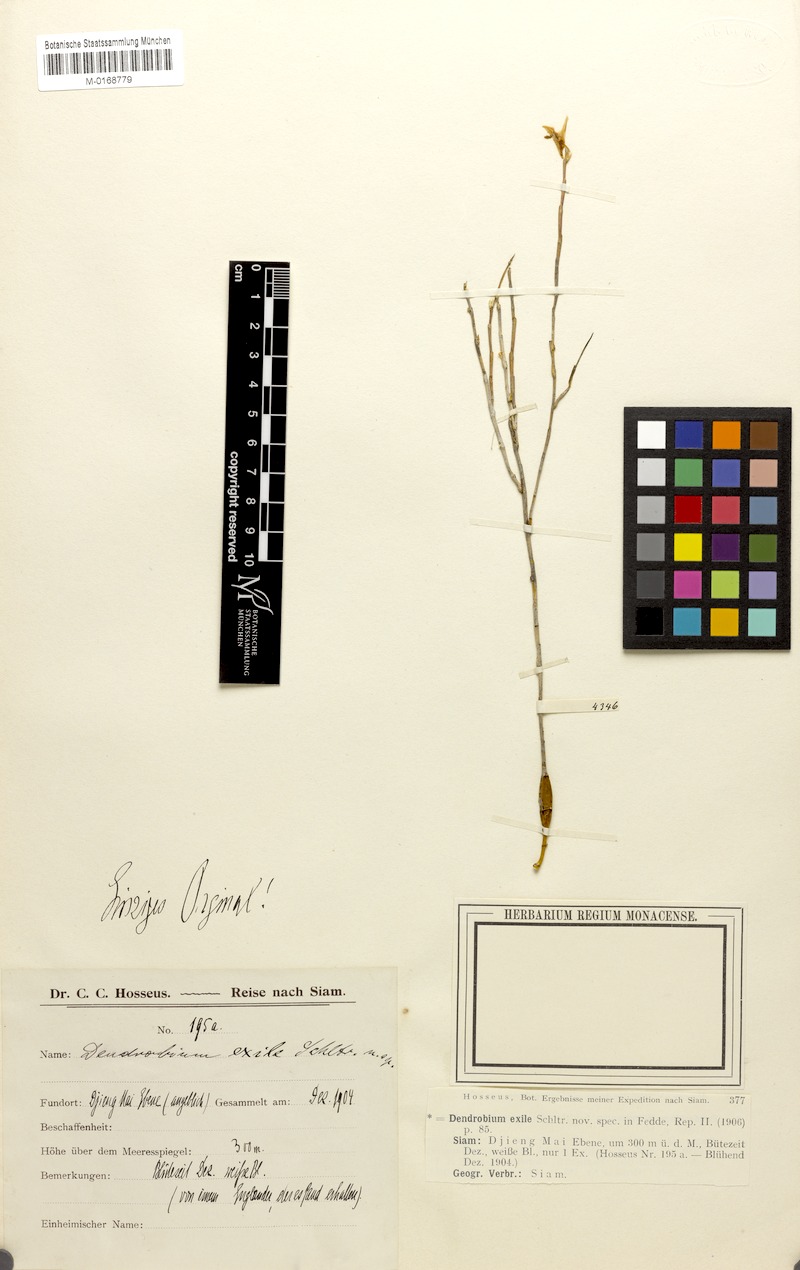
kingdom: Plantae
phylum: Tracheophyta
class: Liliopsida
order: Asparagales
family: Orchidaceae
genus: Dendrobium
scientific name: Dendrobium exile
